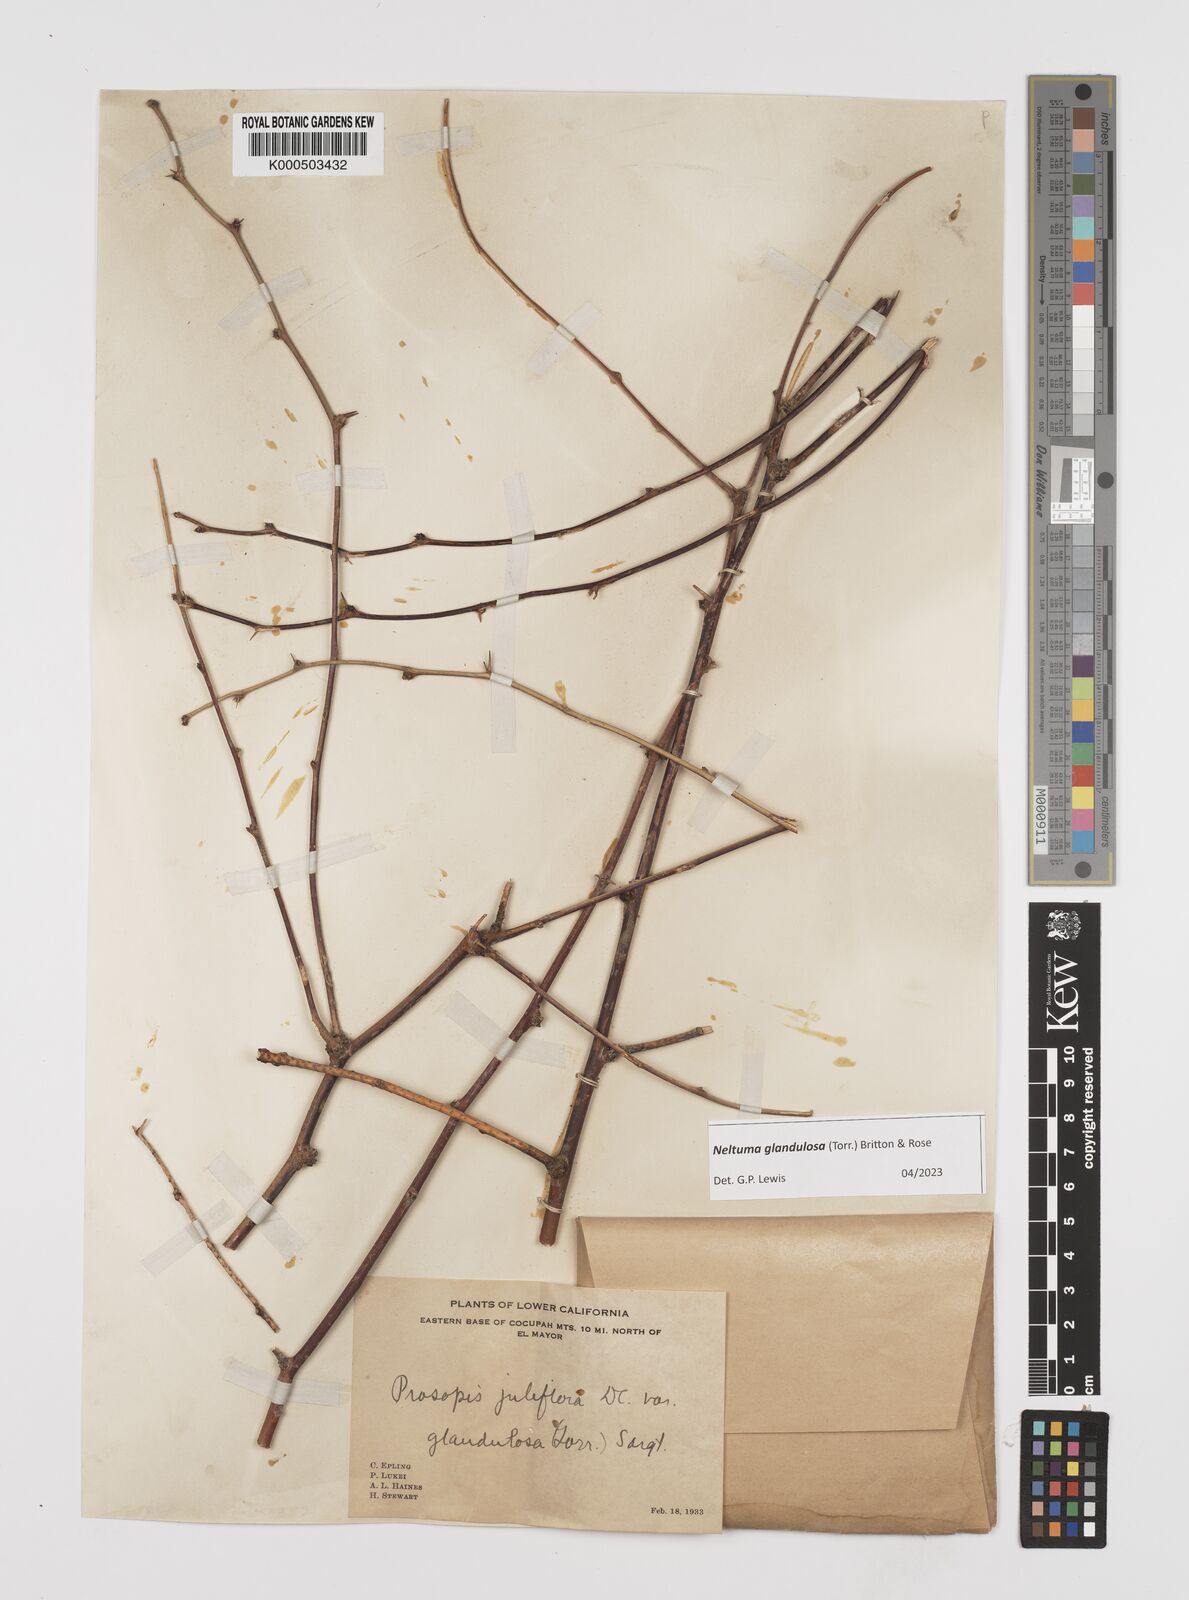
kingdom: Plantae
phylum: Tracheophyta
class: Magnoliopsida
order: Fabales
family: Fabaceae
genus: Prosopis
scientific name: Prosopis juliflora
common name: Mesquite
